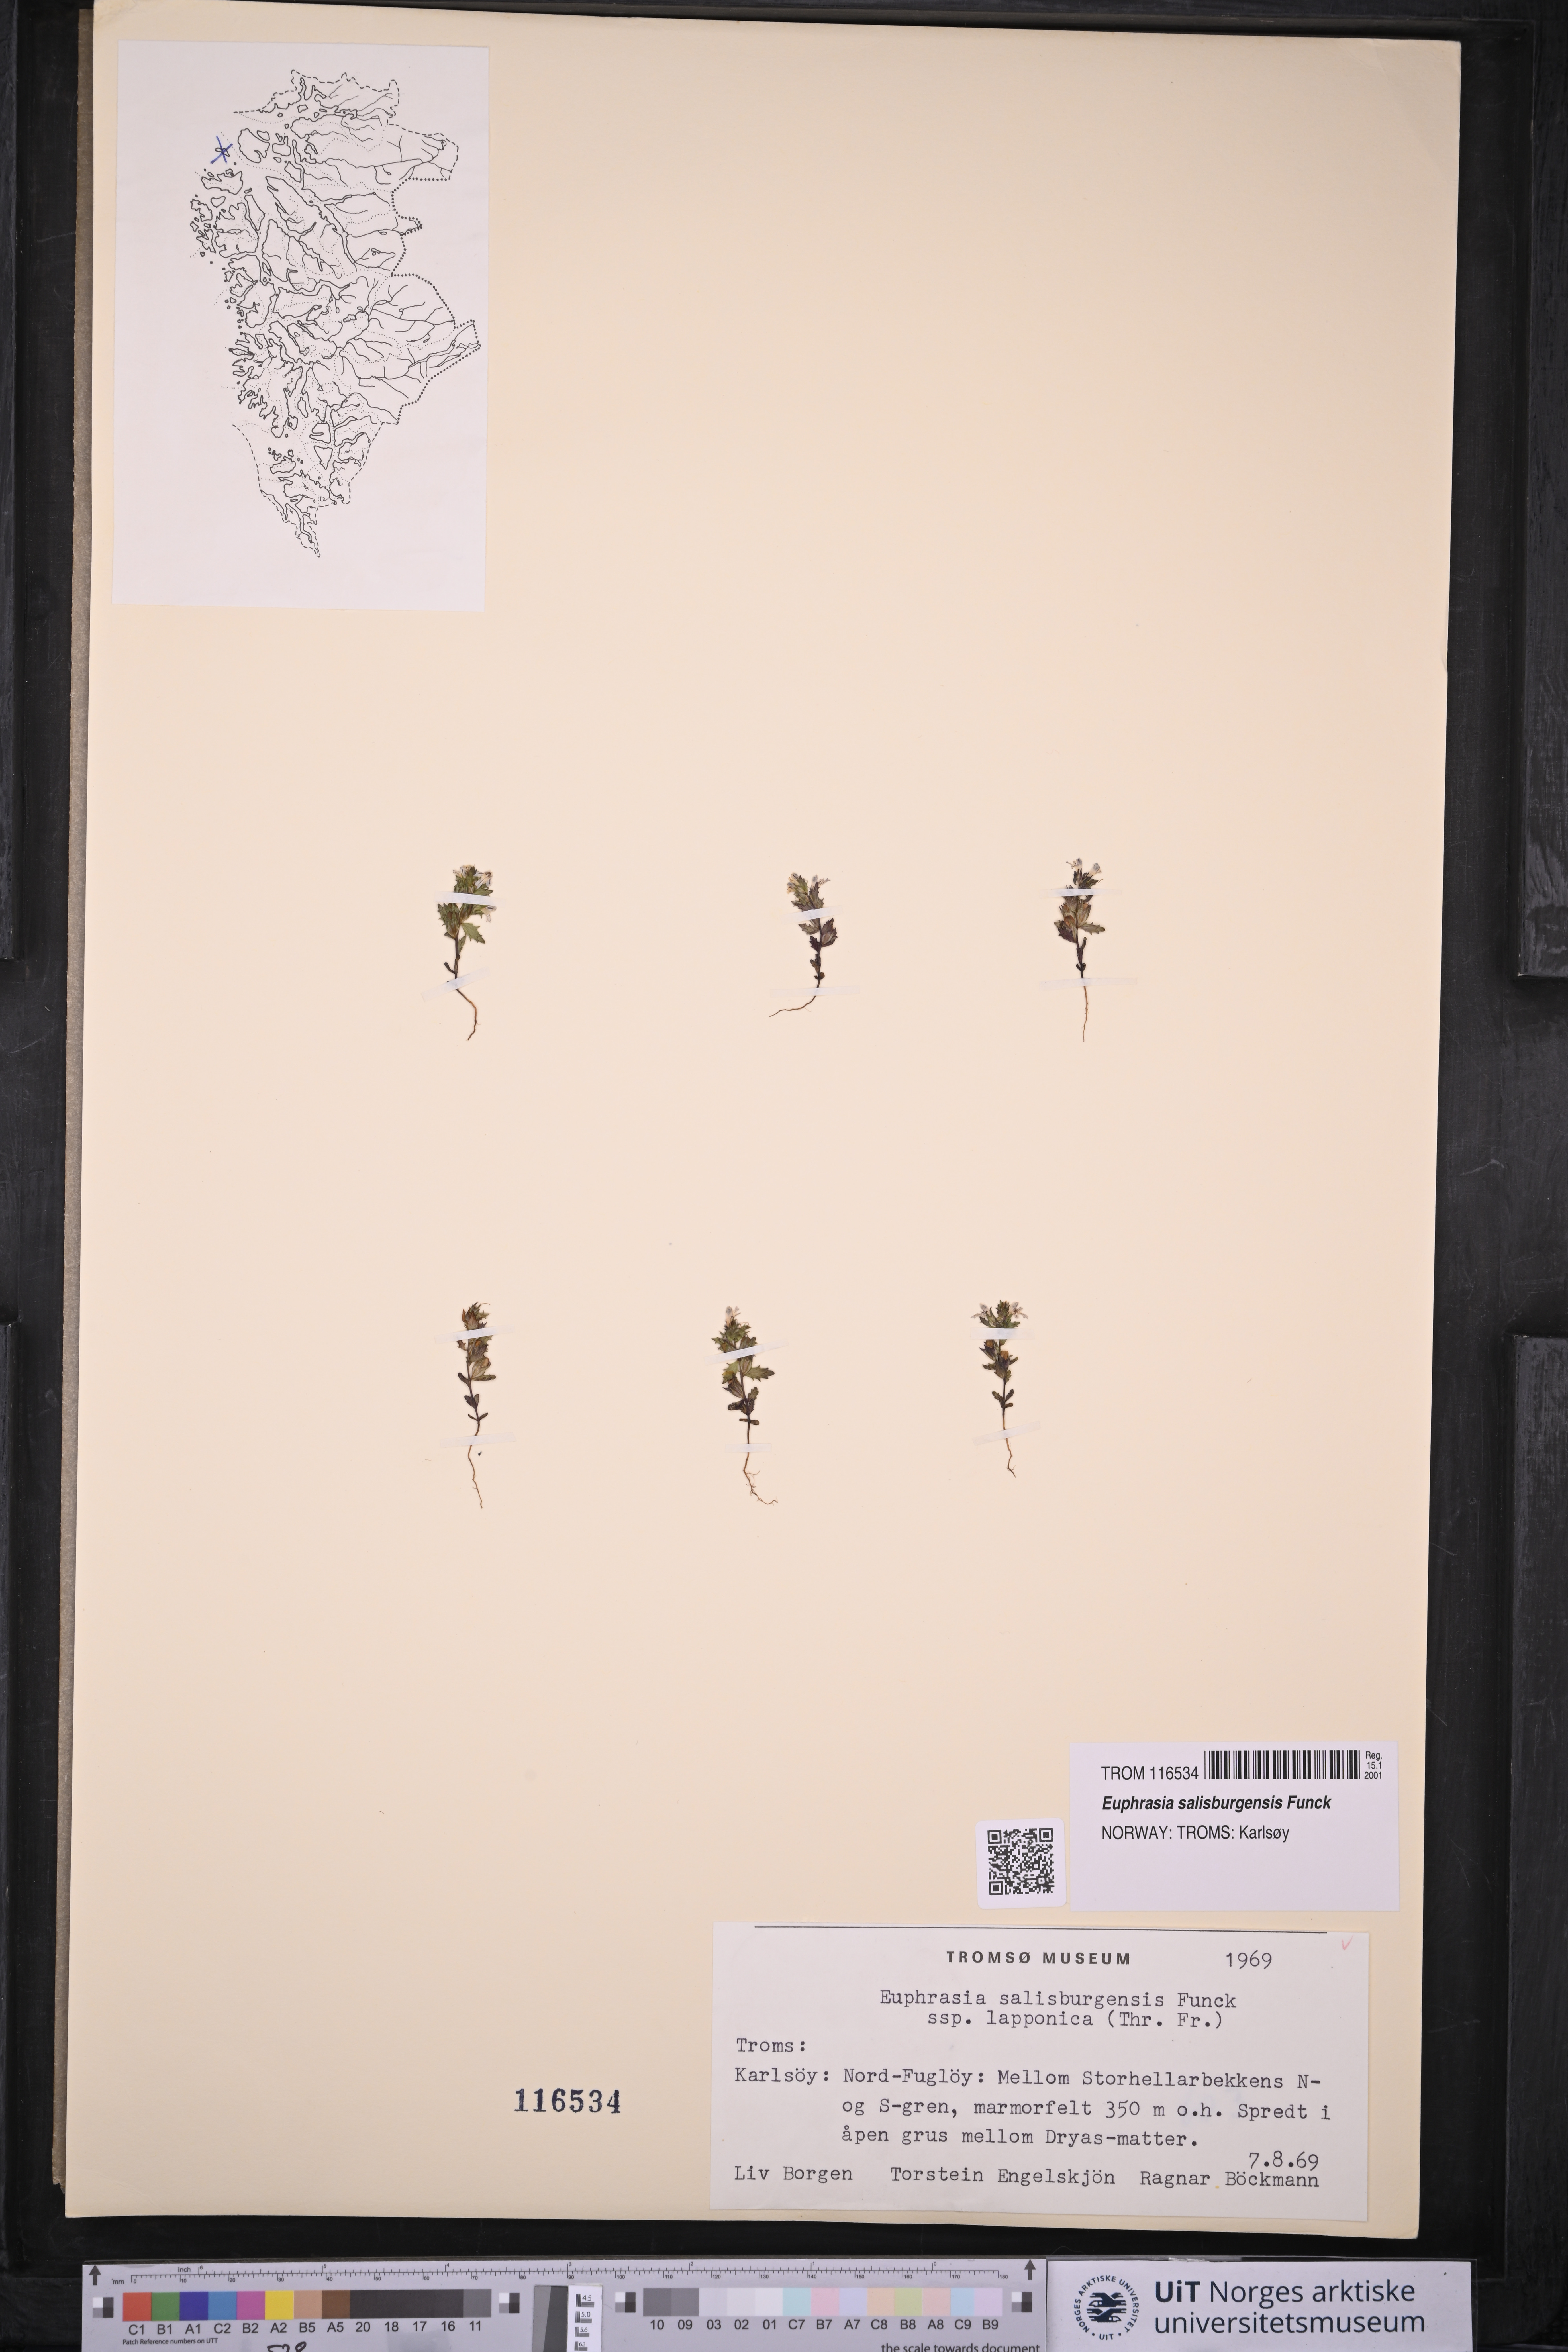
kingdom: Plantae
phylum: Tracheophyta
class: Magnoliopsida
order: Lamiales
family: Orobanchaceae
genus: Euphrasia
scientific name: Euphrasia salisburgensis
